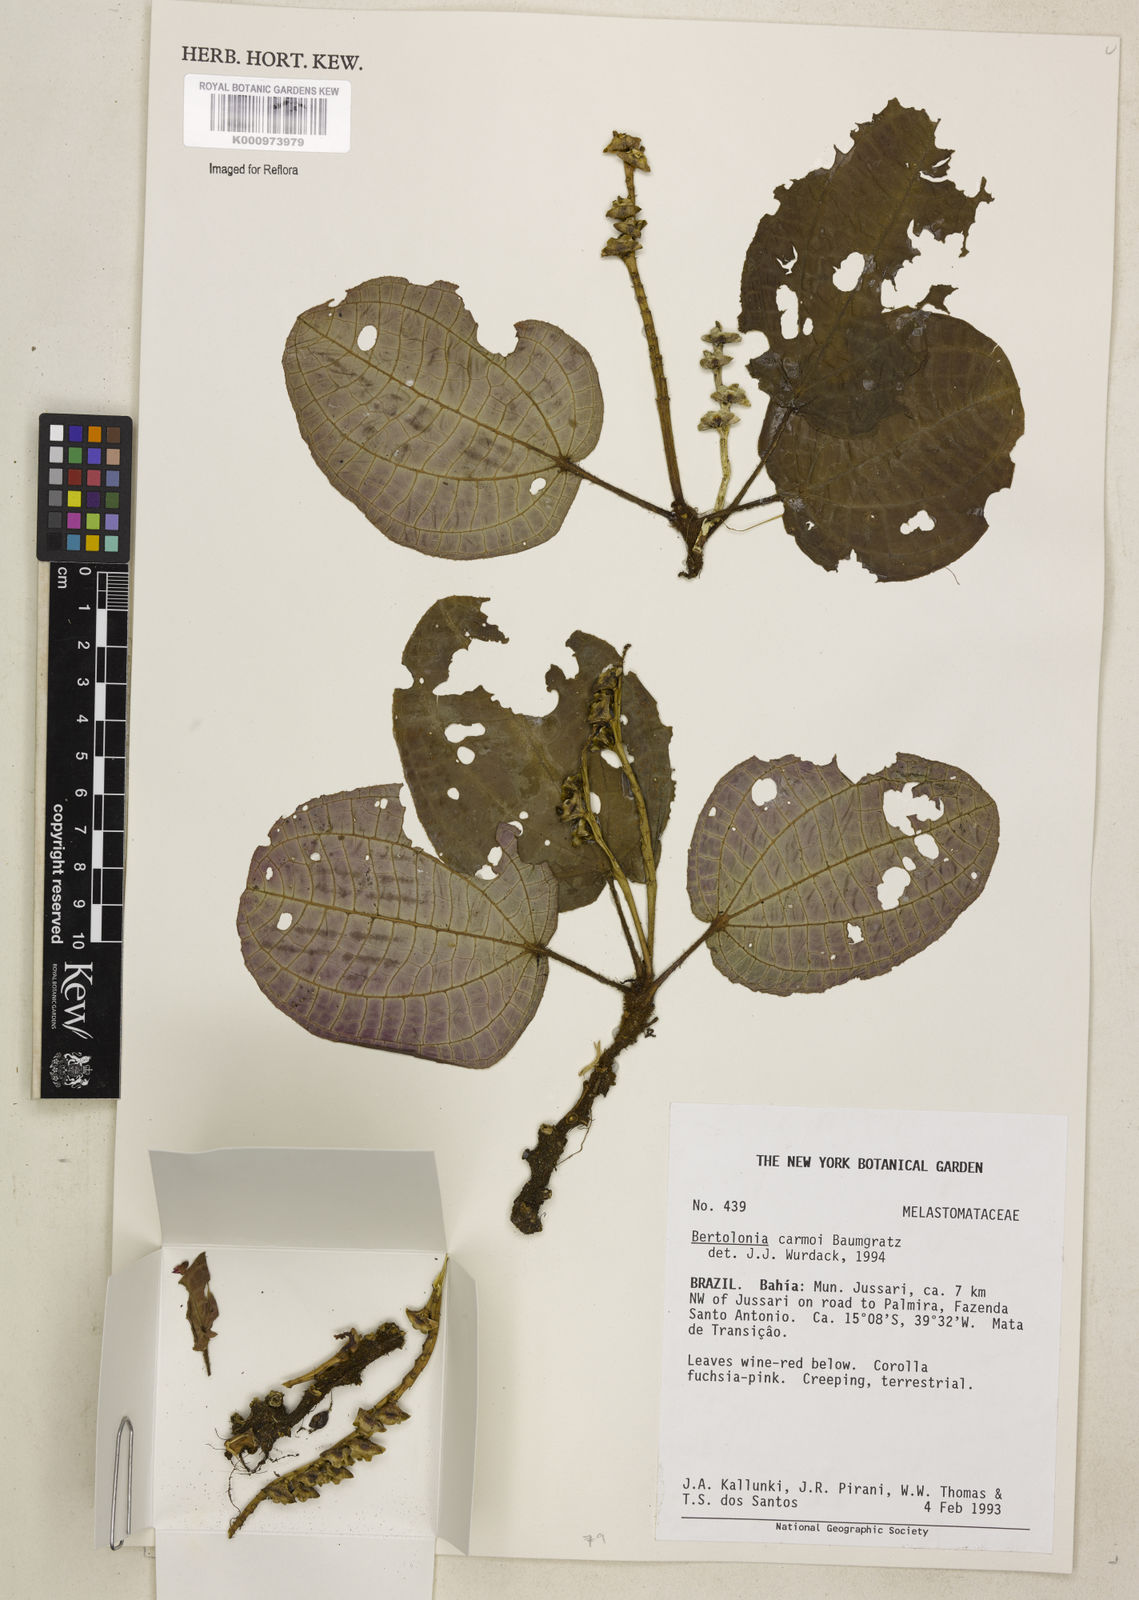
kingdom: Plantae
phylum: Tracheophyta
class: Magnoliopsida
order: Myrtales
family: Melastomataceae
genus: Bertolonia
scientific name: Bertolonia carmoi
